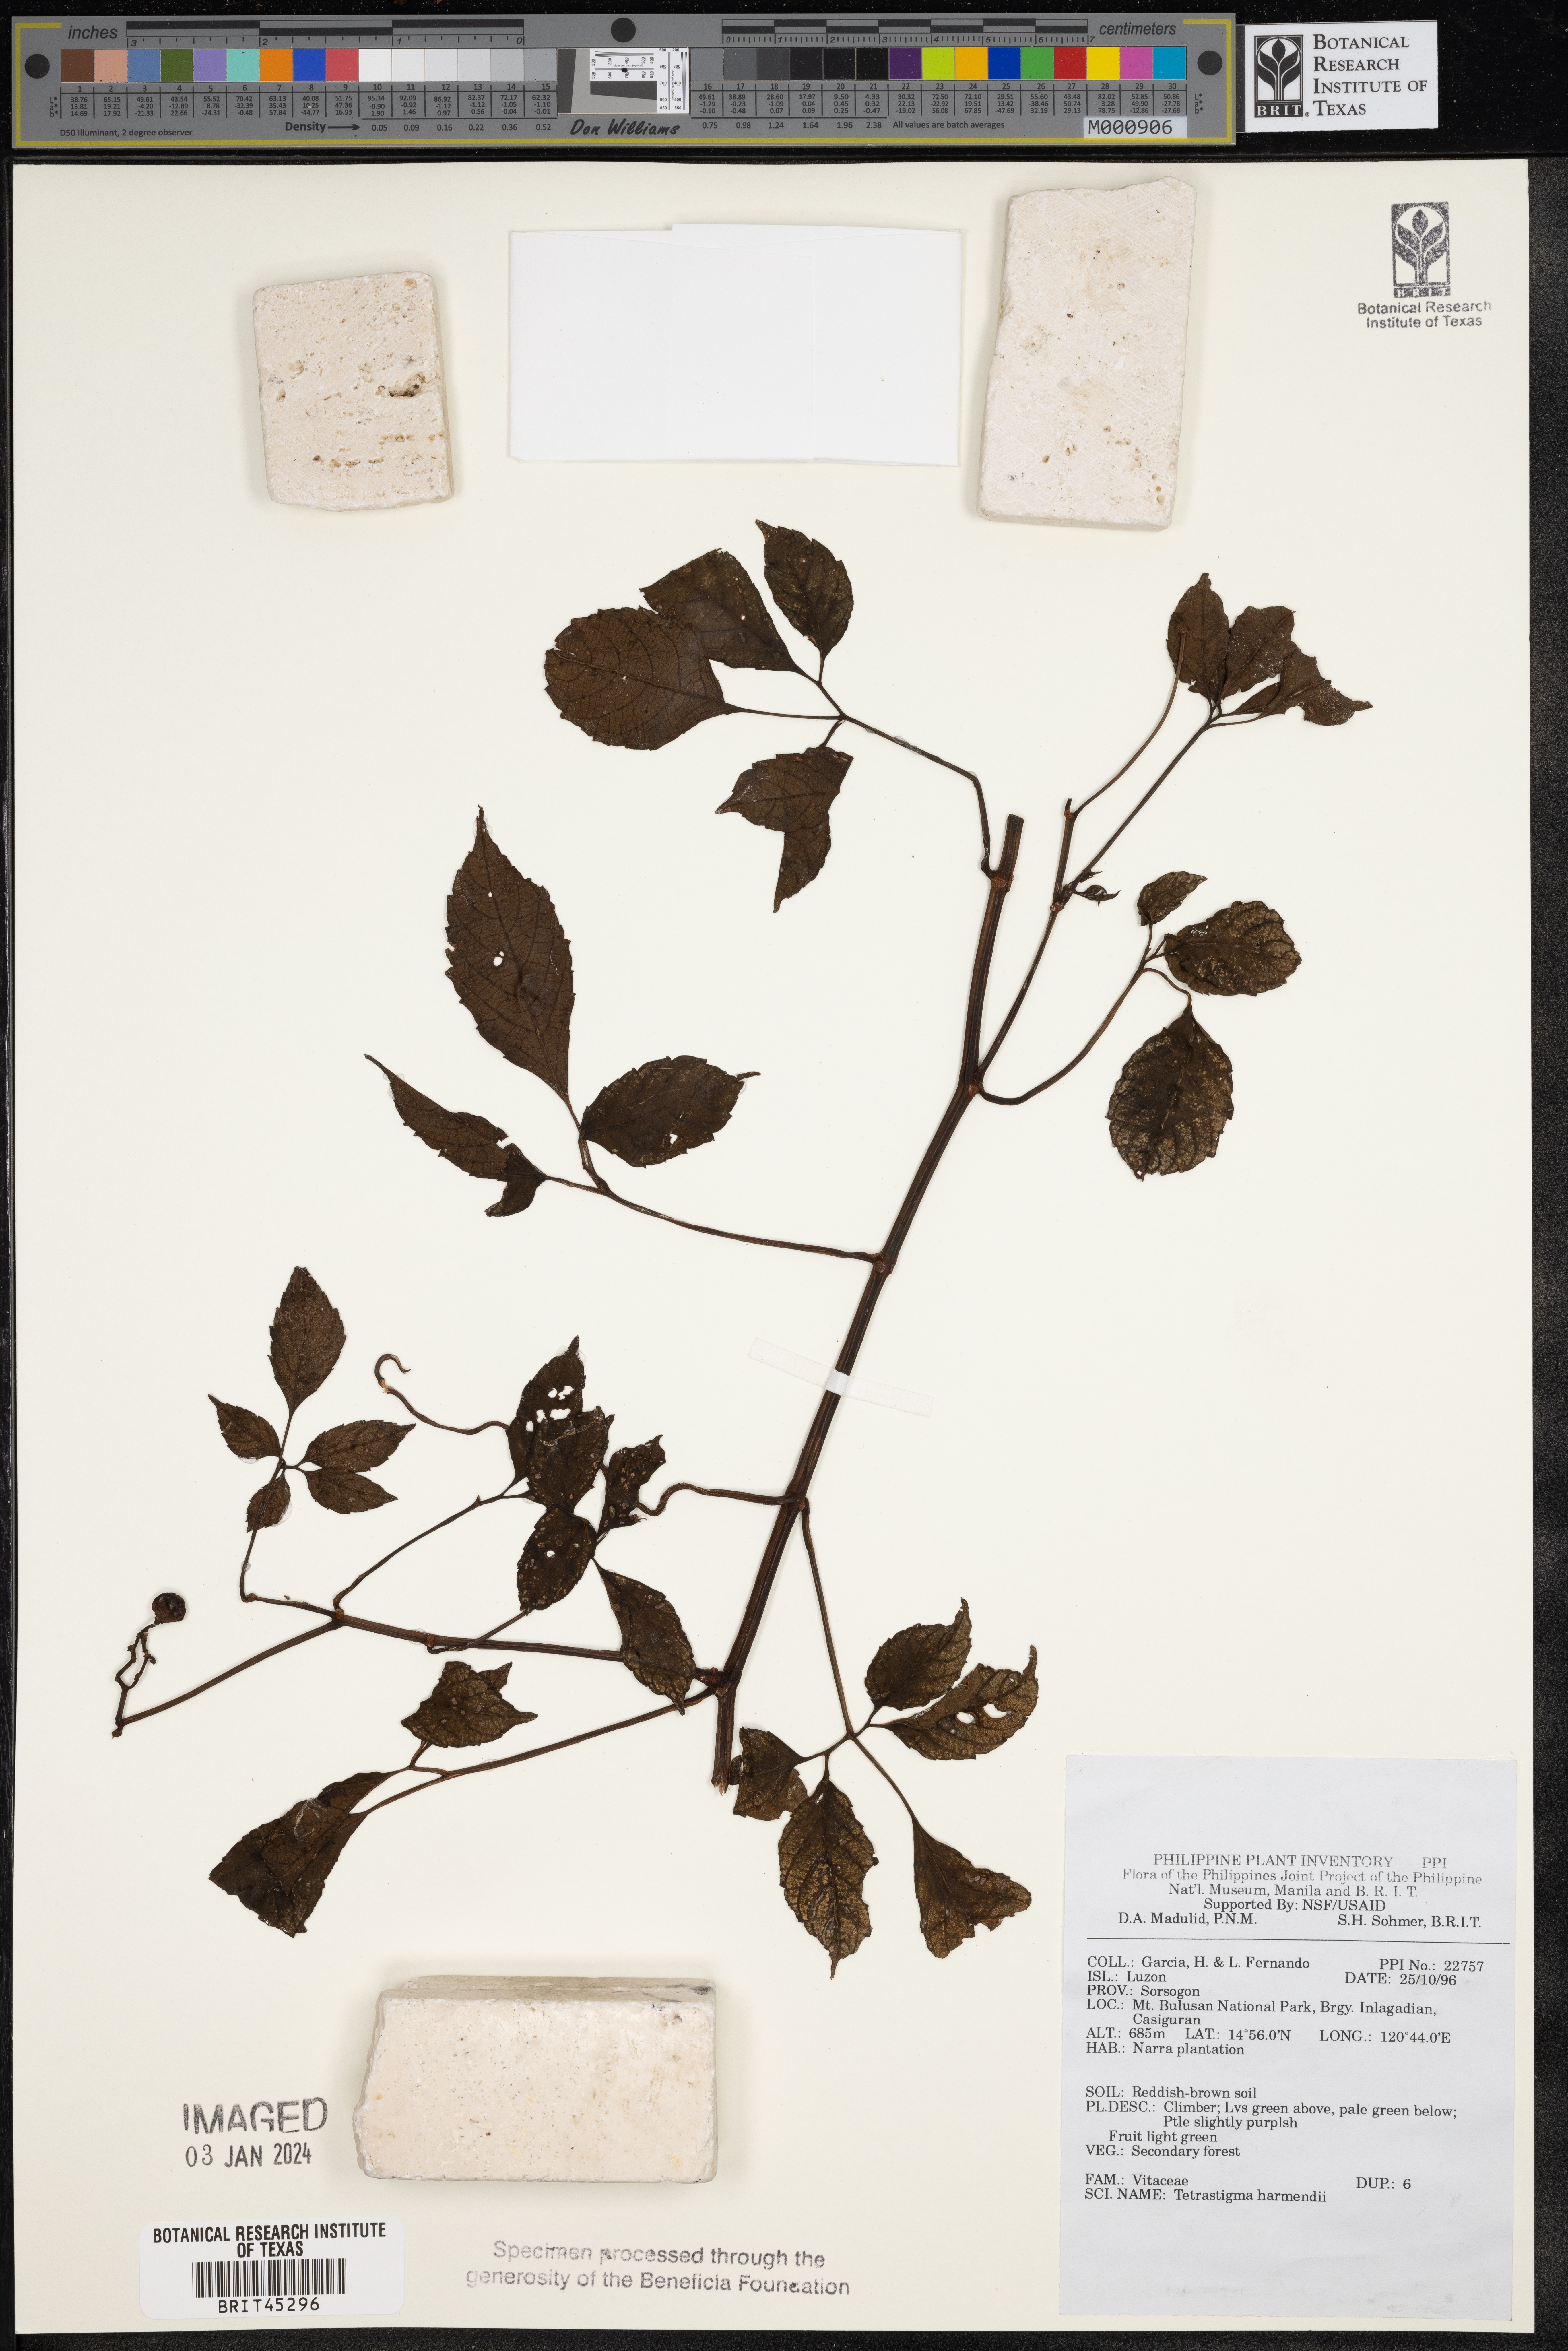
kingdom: Plantae
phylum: Tracheophyta
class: Magnoliopsida
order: Vitales
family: Vitaceae
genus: Tetrastigma
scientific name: Tetrastigma harmandii
